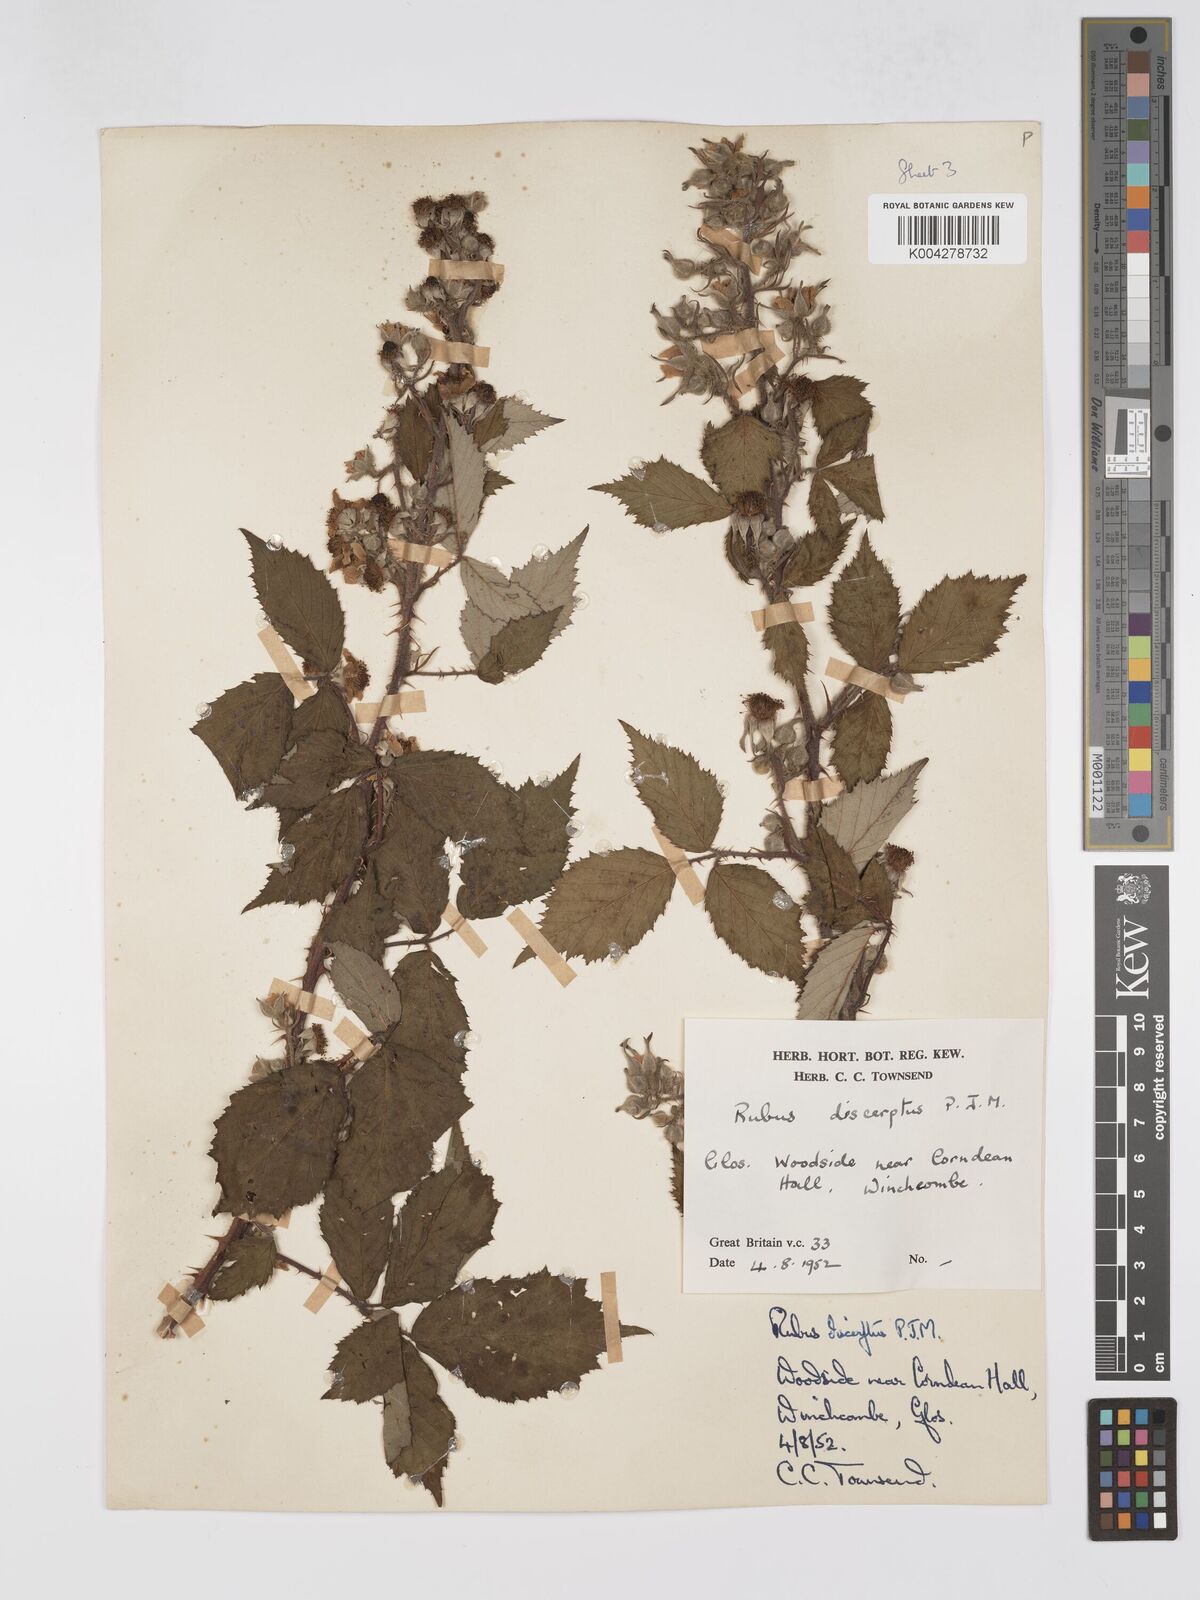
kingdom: Plantae
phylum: Tracheophyta
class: Magnoliopsida
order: Rosales
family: Rosaceae
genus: Rubus
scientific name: Rubus echinatus
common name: Echinate bramble
